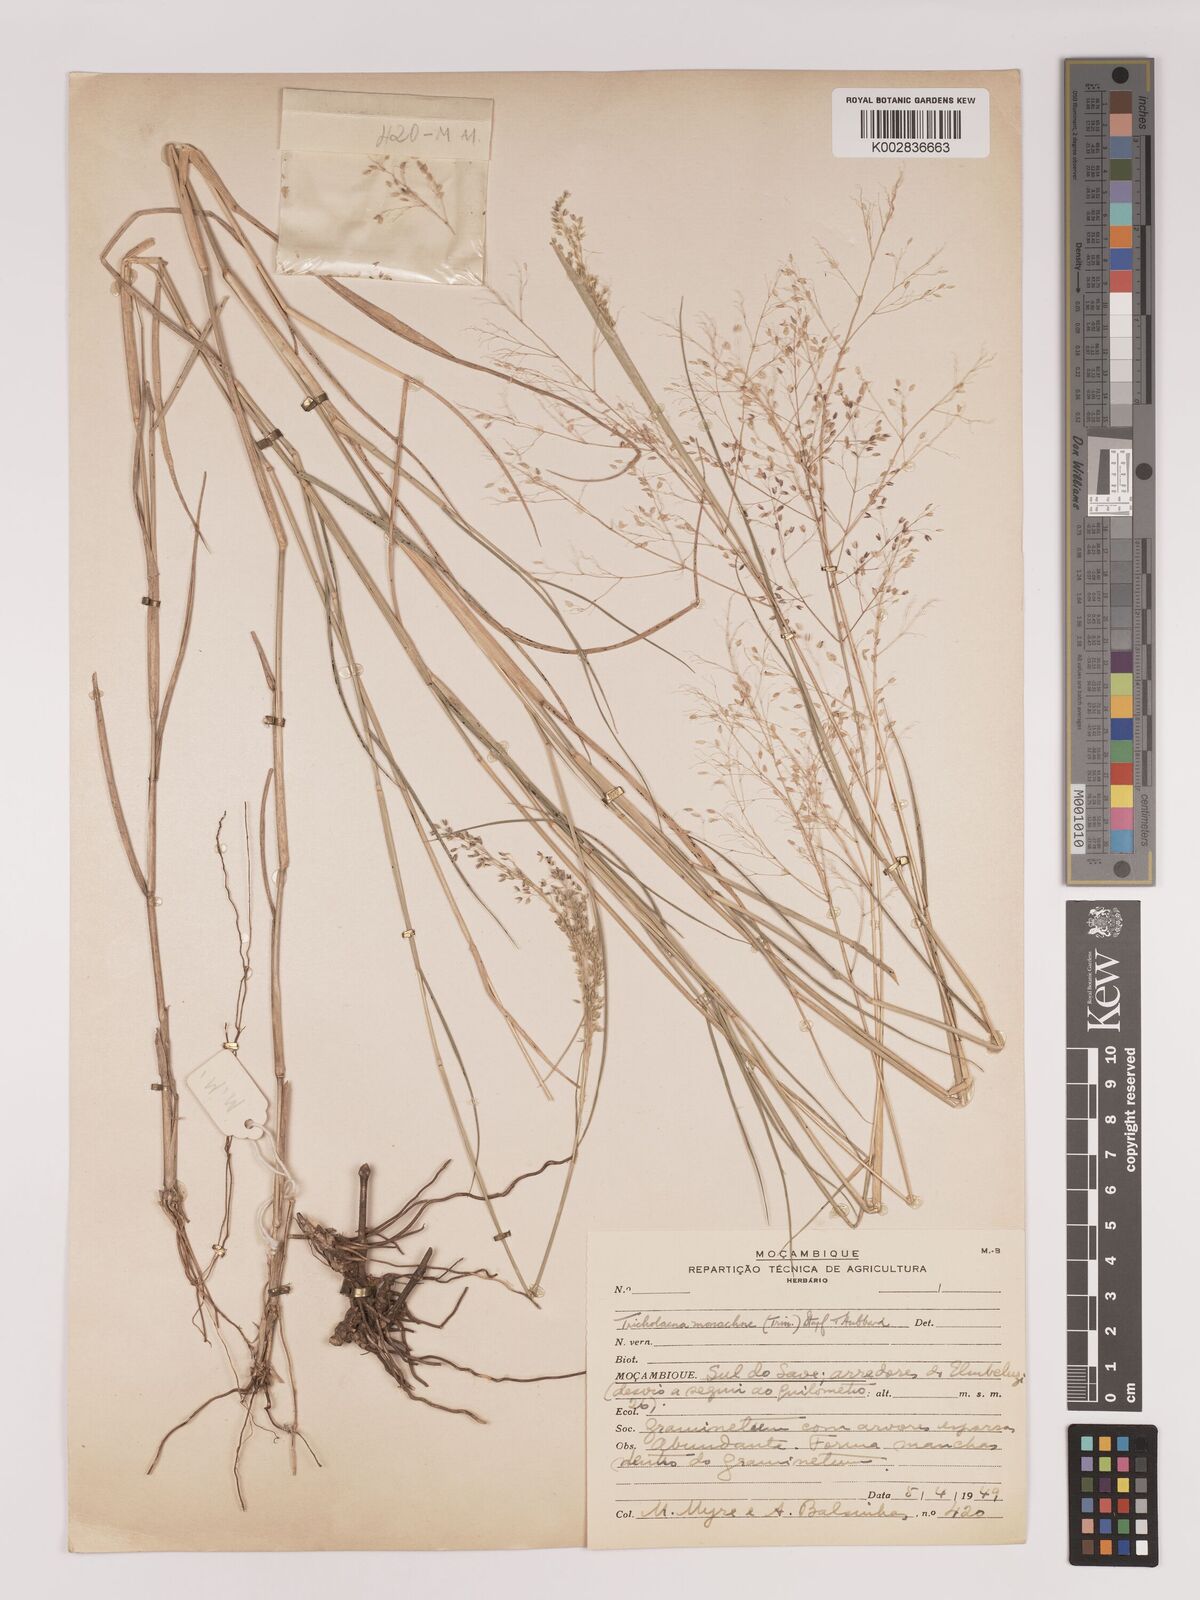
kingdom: Plantae
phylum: Tracheophyta
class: Liliopsida
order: Poales
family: Poaceae
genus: Tricholaena
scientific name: Tricholaena monachne
